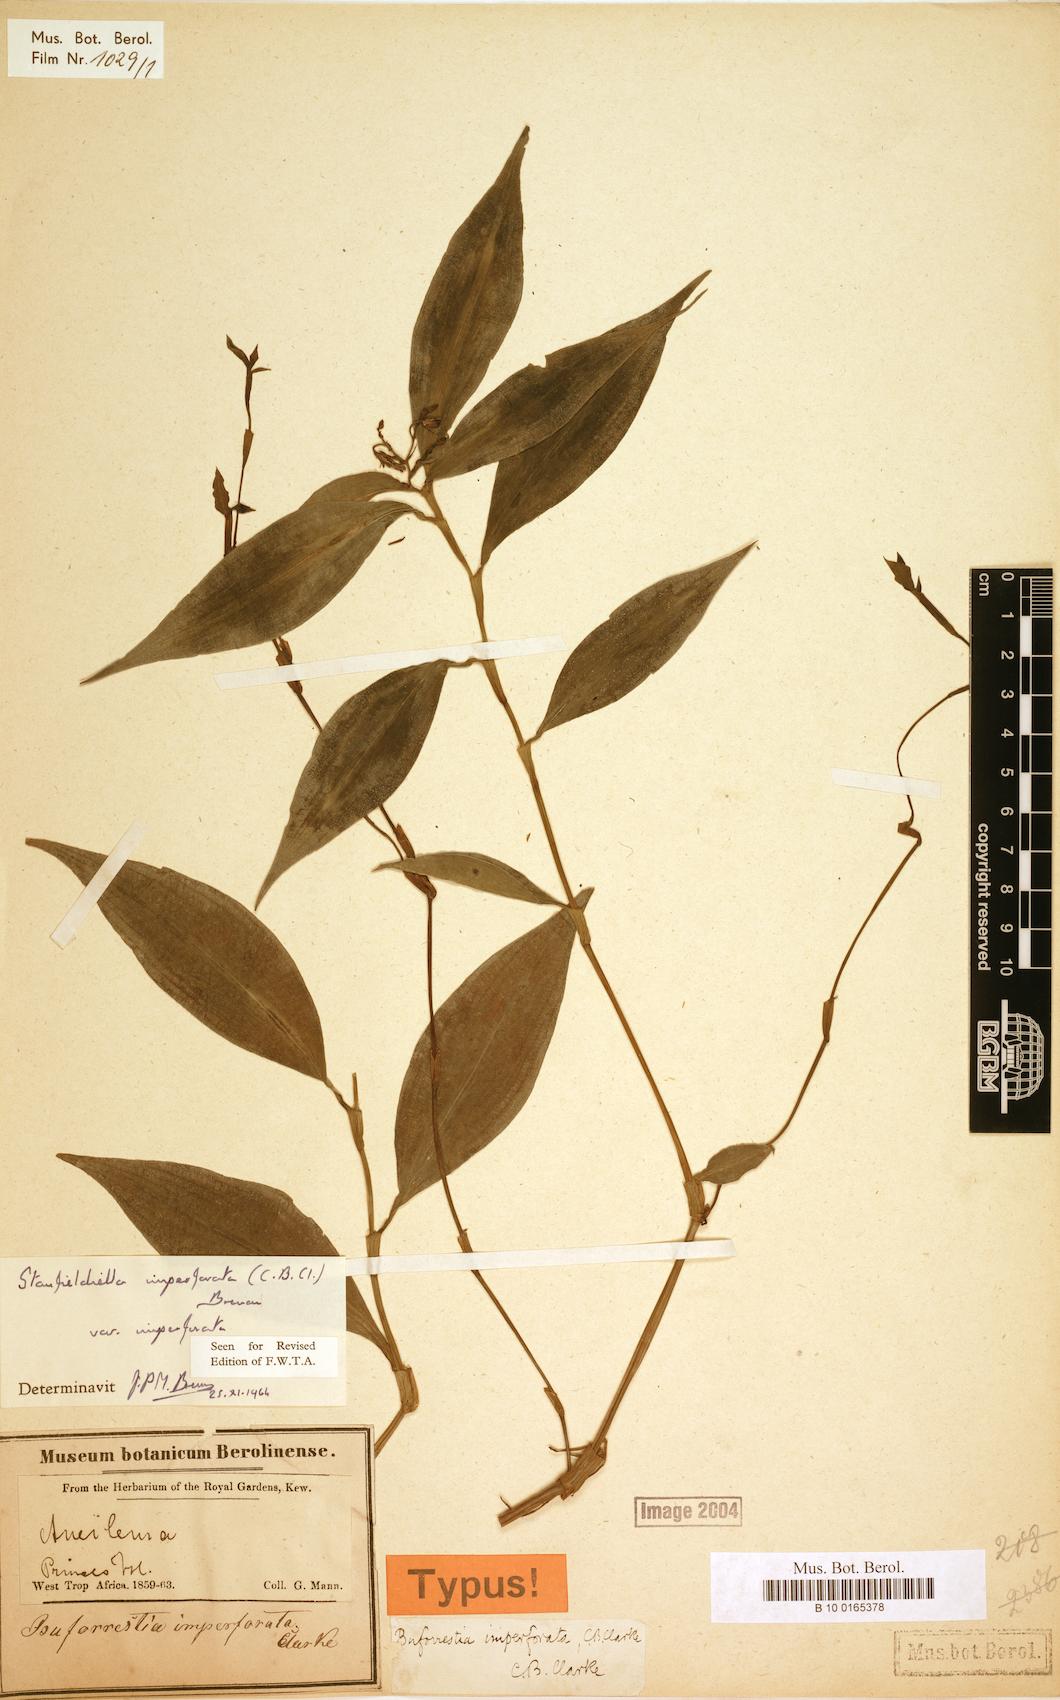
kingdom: Plantae
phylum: Tracheophyta
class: Liliopsida
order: Commelinales
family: Commelinaceae
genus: Stanfieldiella
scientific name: Stanfieldiella imperforata
